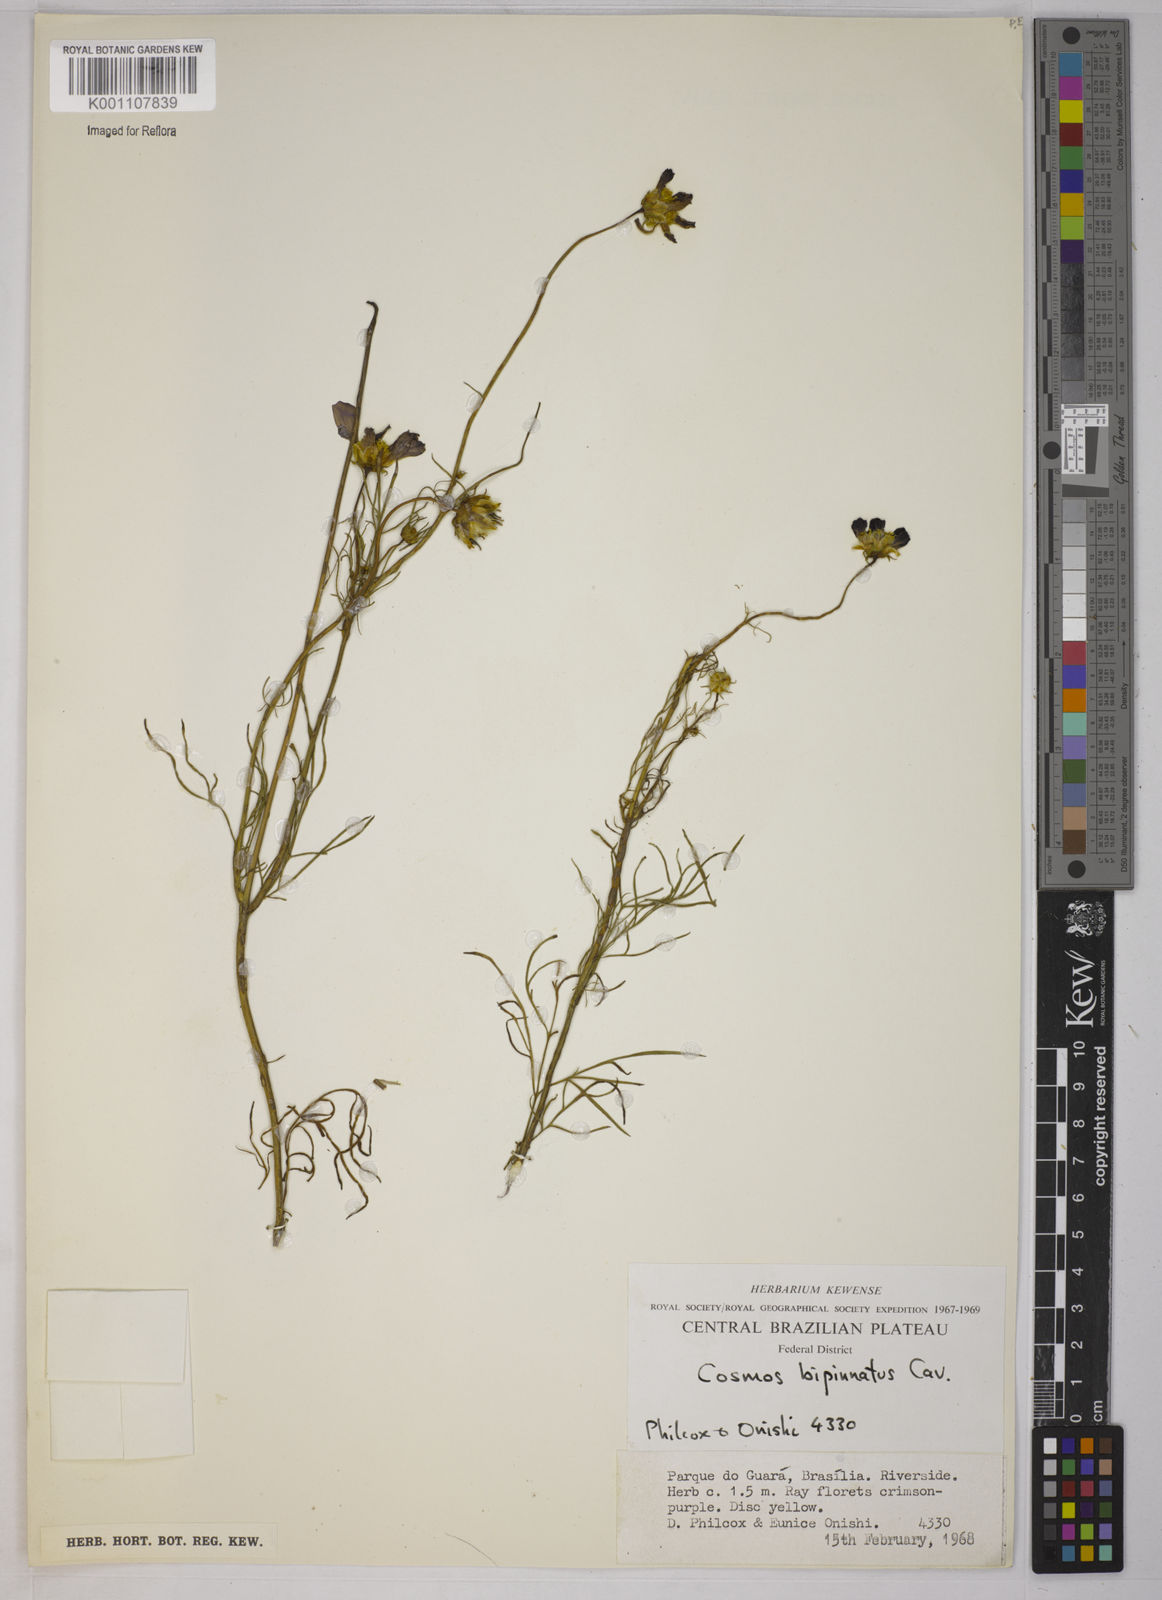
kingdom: Plantae
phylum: Tracheophyta
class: Magnoliopsida
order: Asterales
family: Asteraceae
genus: Cosmos
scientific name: Cosmos bipinnatus
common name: Garden cosmos
